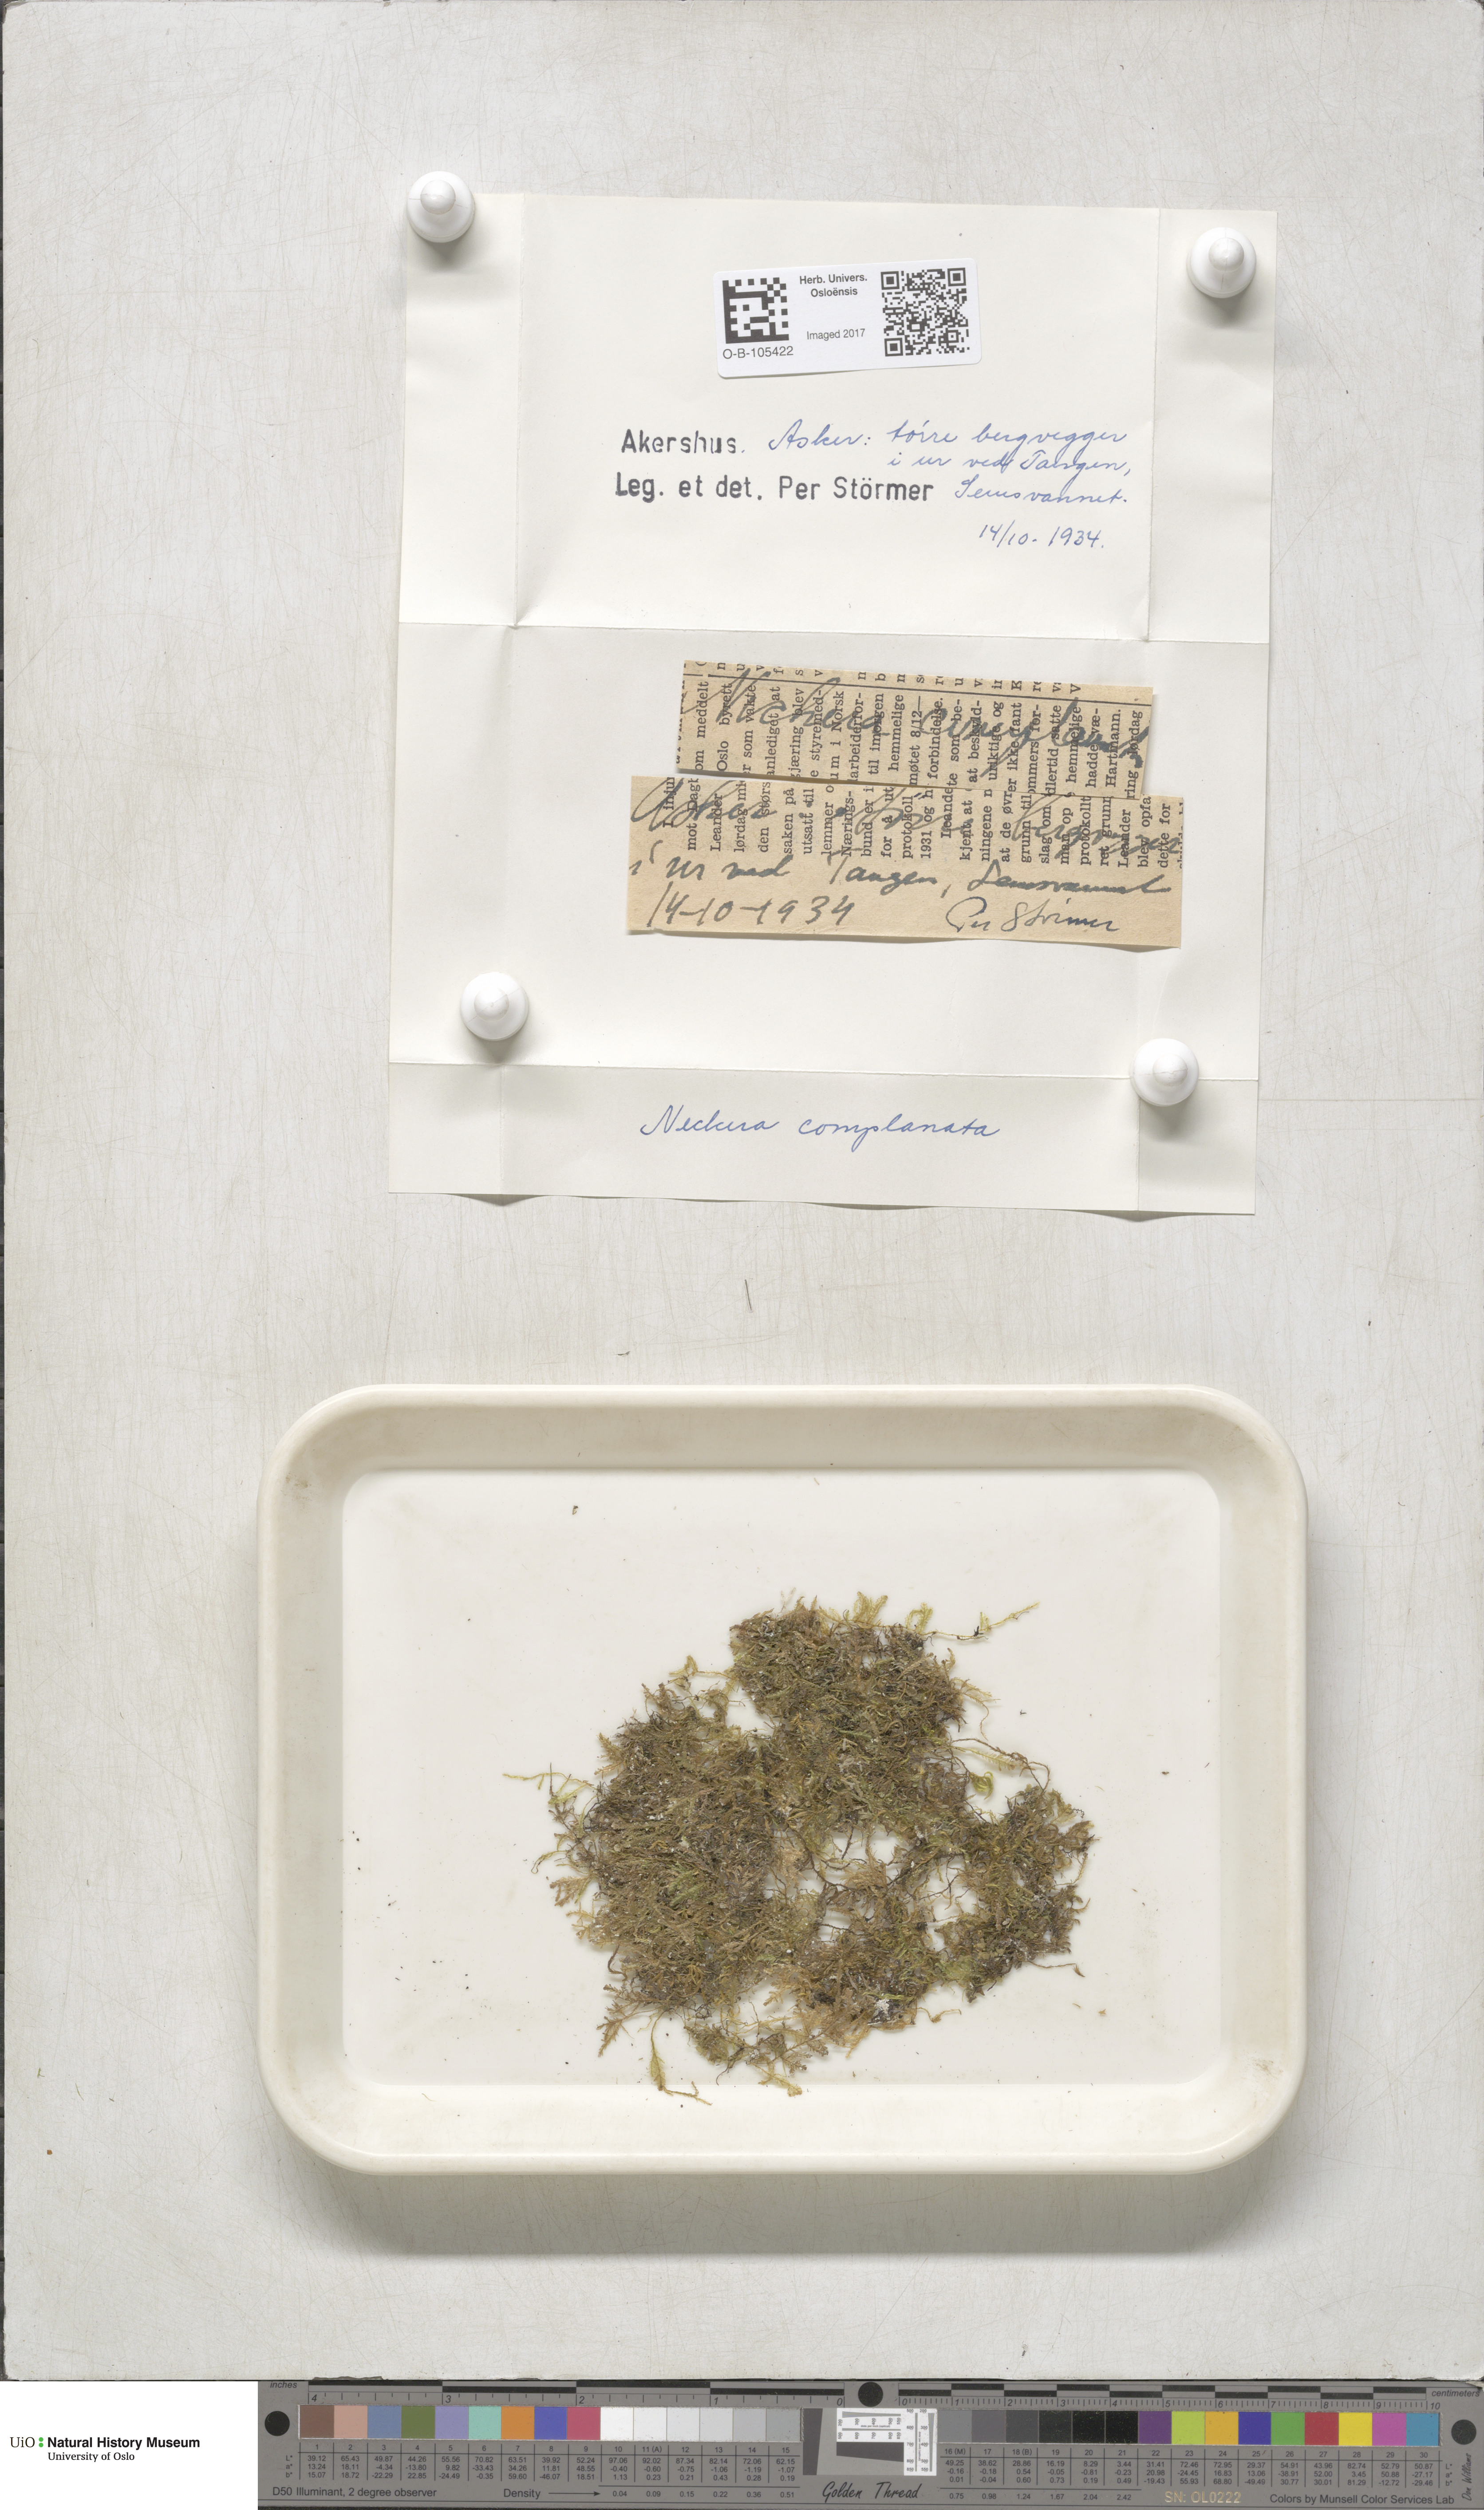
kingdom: Plantae
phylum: Bryophyta
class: Bryopsida
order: Hypnales
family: Neckeraceae
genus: Alleniella
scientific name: Alleniella complanata
